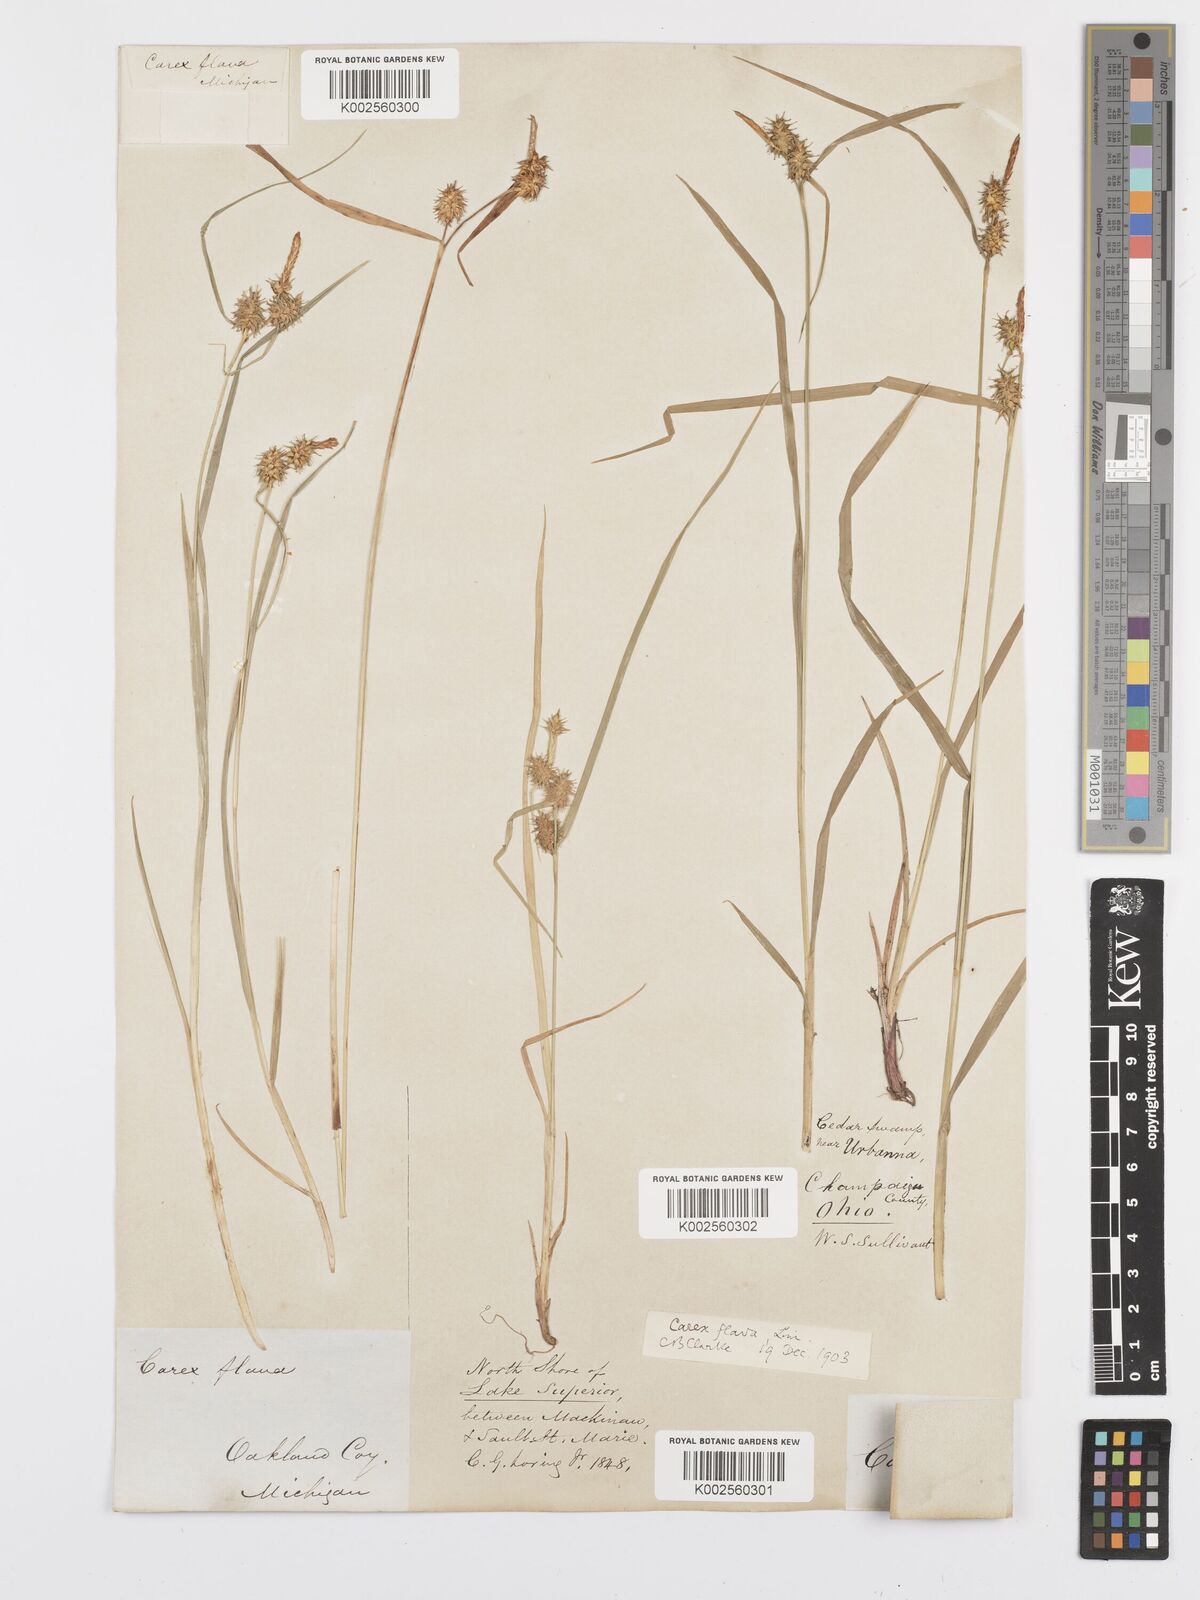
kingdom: Plantae
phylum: Tracheophyta
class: Liliopsida
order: Poales
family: Cyperaceae
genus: Carex
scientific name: Carex flava
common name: Large yellow-sedge
